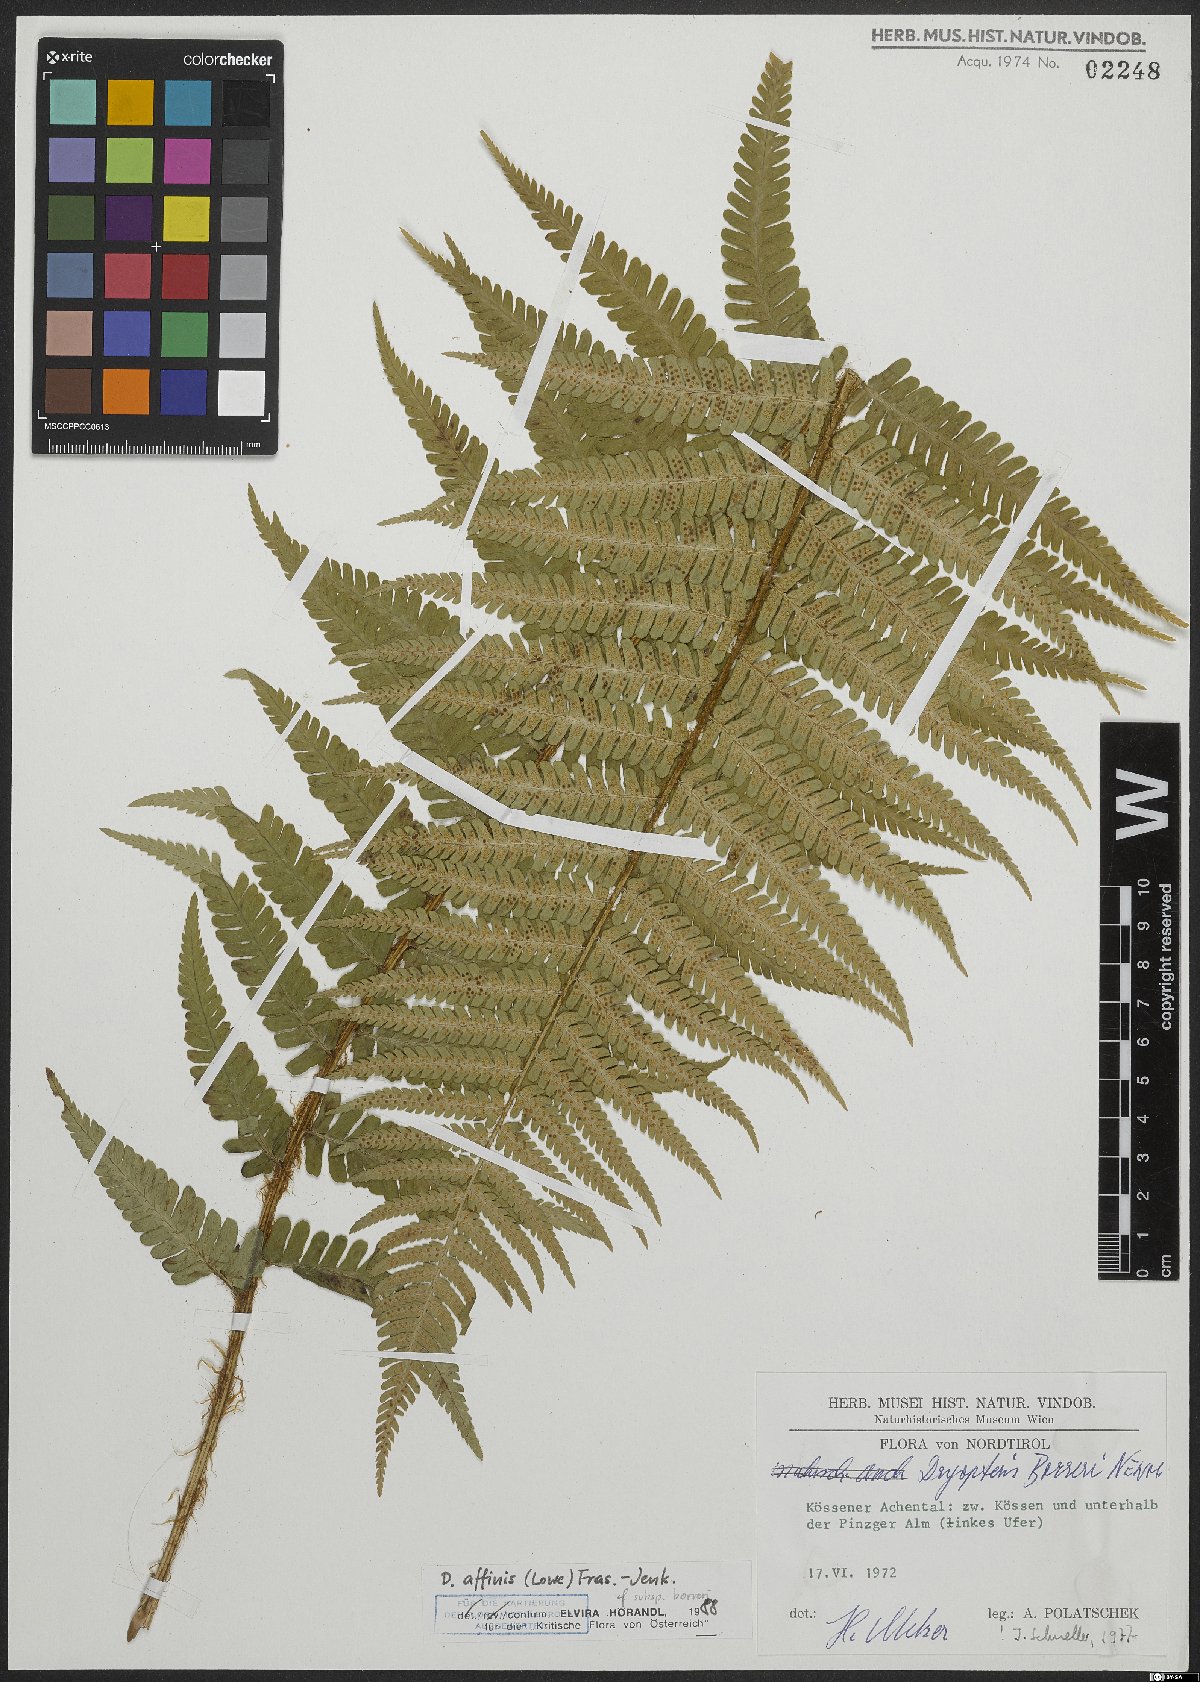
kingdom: Plantae
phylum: Tracheophyta
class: Polypodiopsida
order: Polypodiales
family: Dryopteridaceae
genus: Dryopteris
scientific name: Dryopteris borreri
